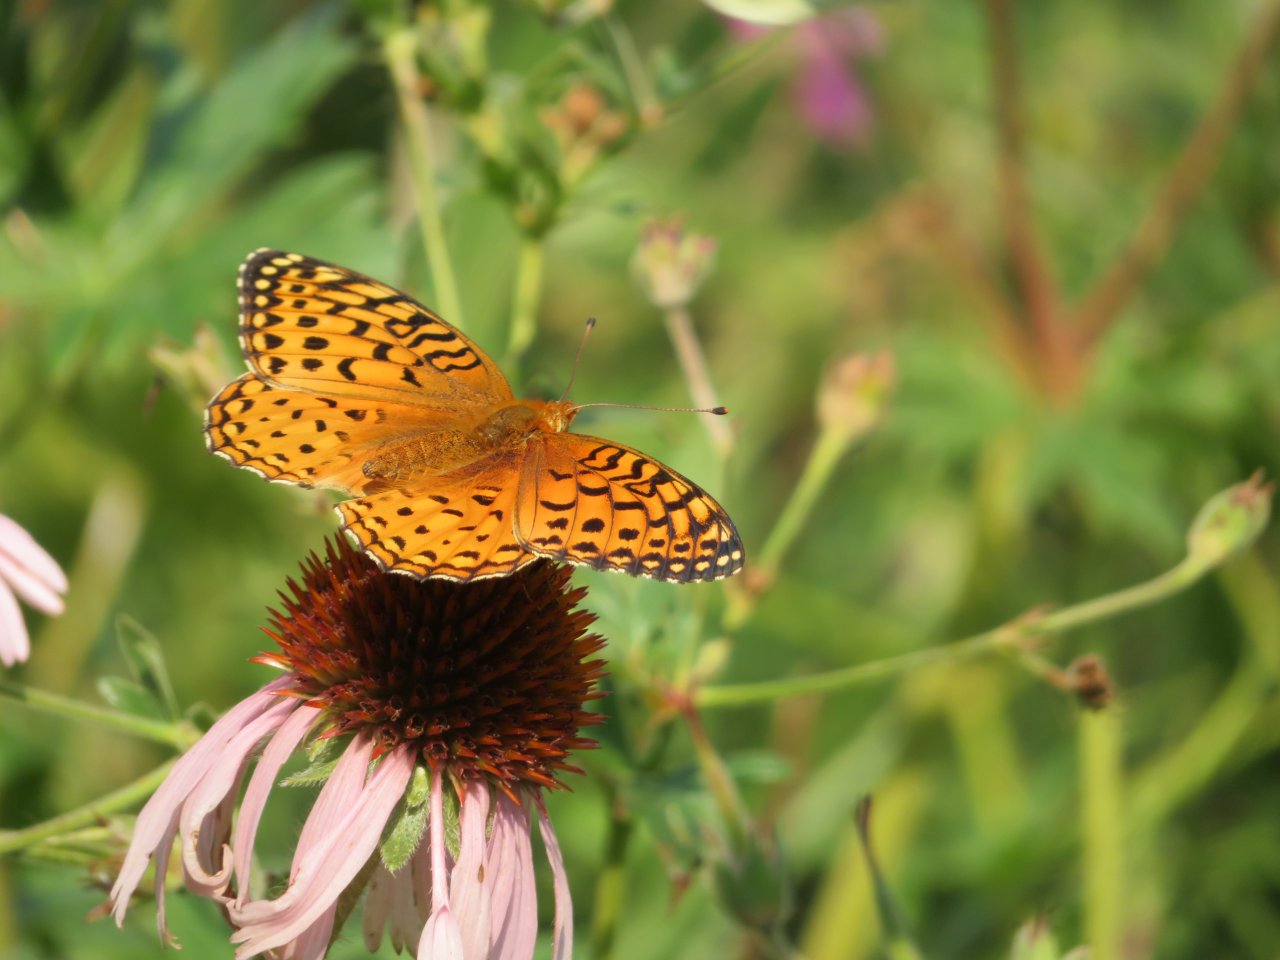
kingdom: Animalia
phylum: Arthropoda
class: Insecta
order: Lepidoptera
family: Nymphalidae
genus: Speyeria
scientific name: Speyeria aphrodite
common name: Aphrodite Fritillary
